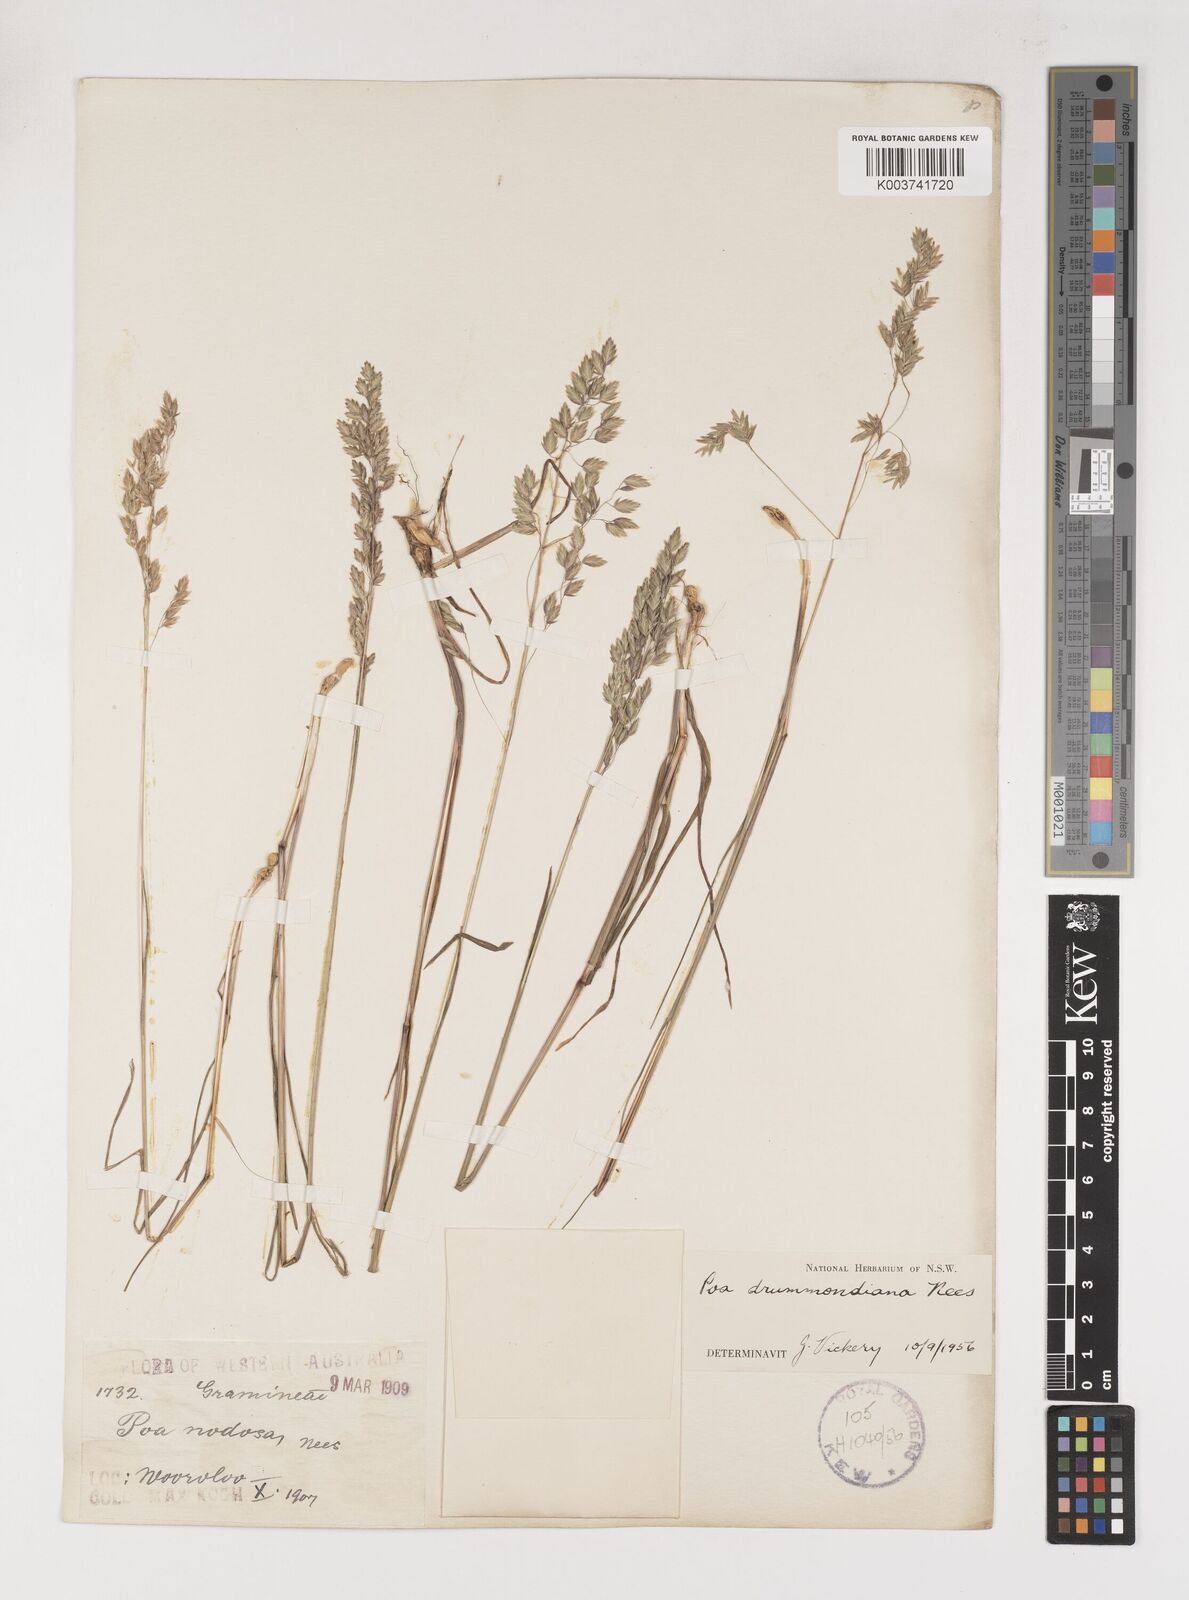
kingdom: Plantae
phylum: Tracheophyta
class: Liliopsida
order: Poales
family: Poaceae
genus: Poa
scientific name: Poa drummondiana
